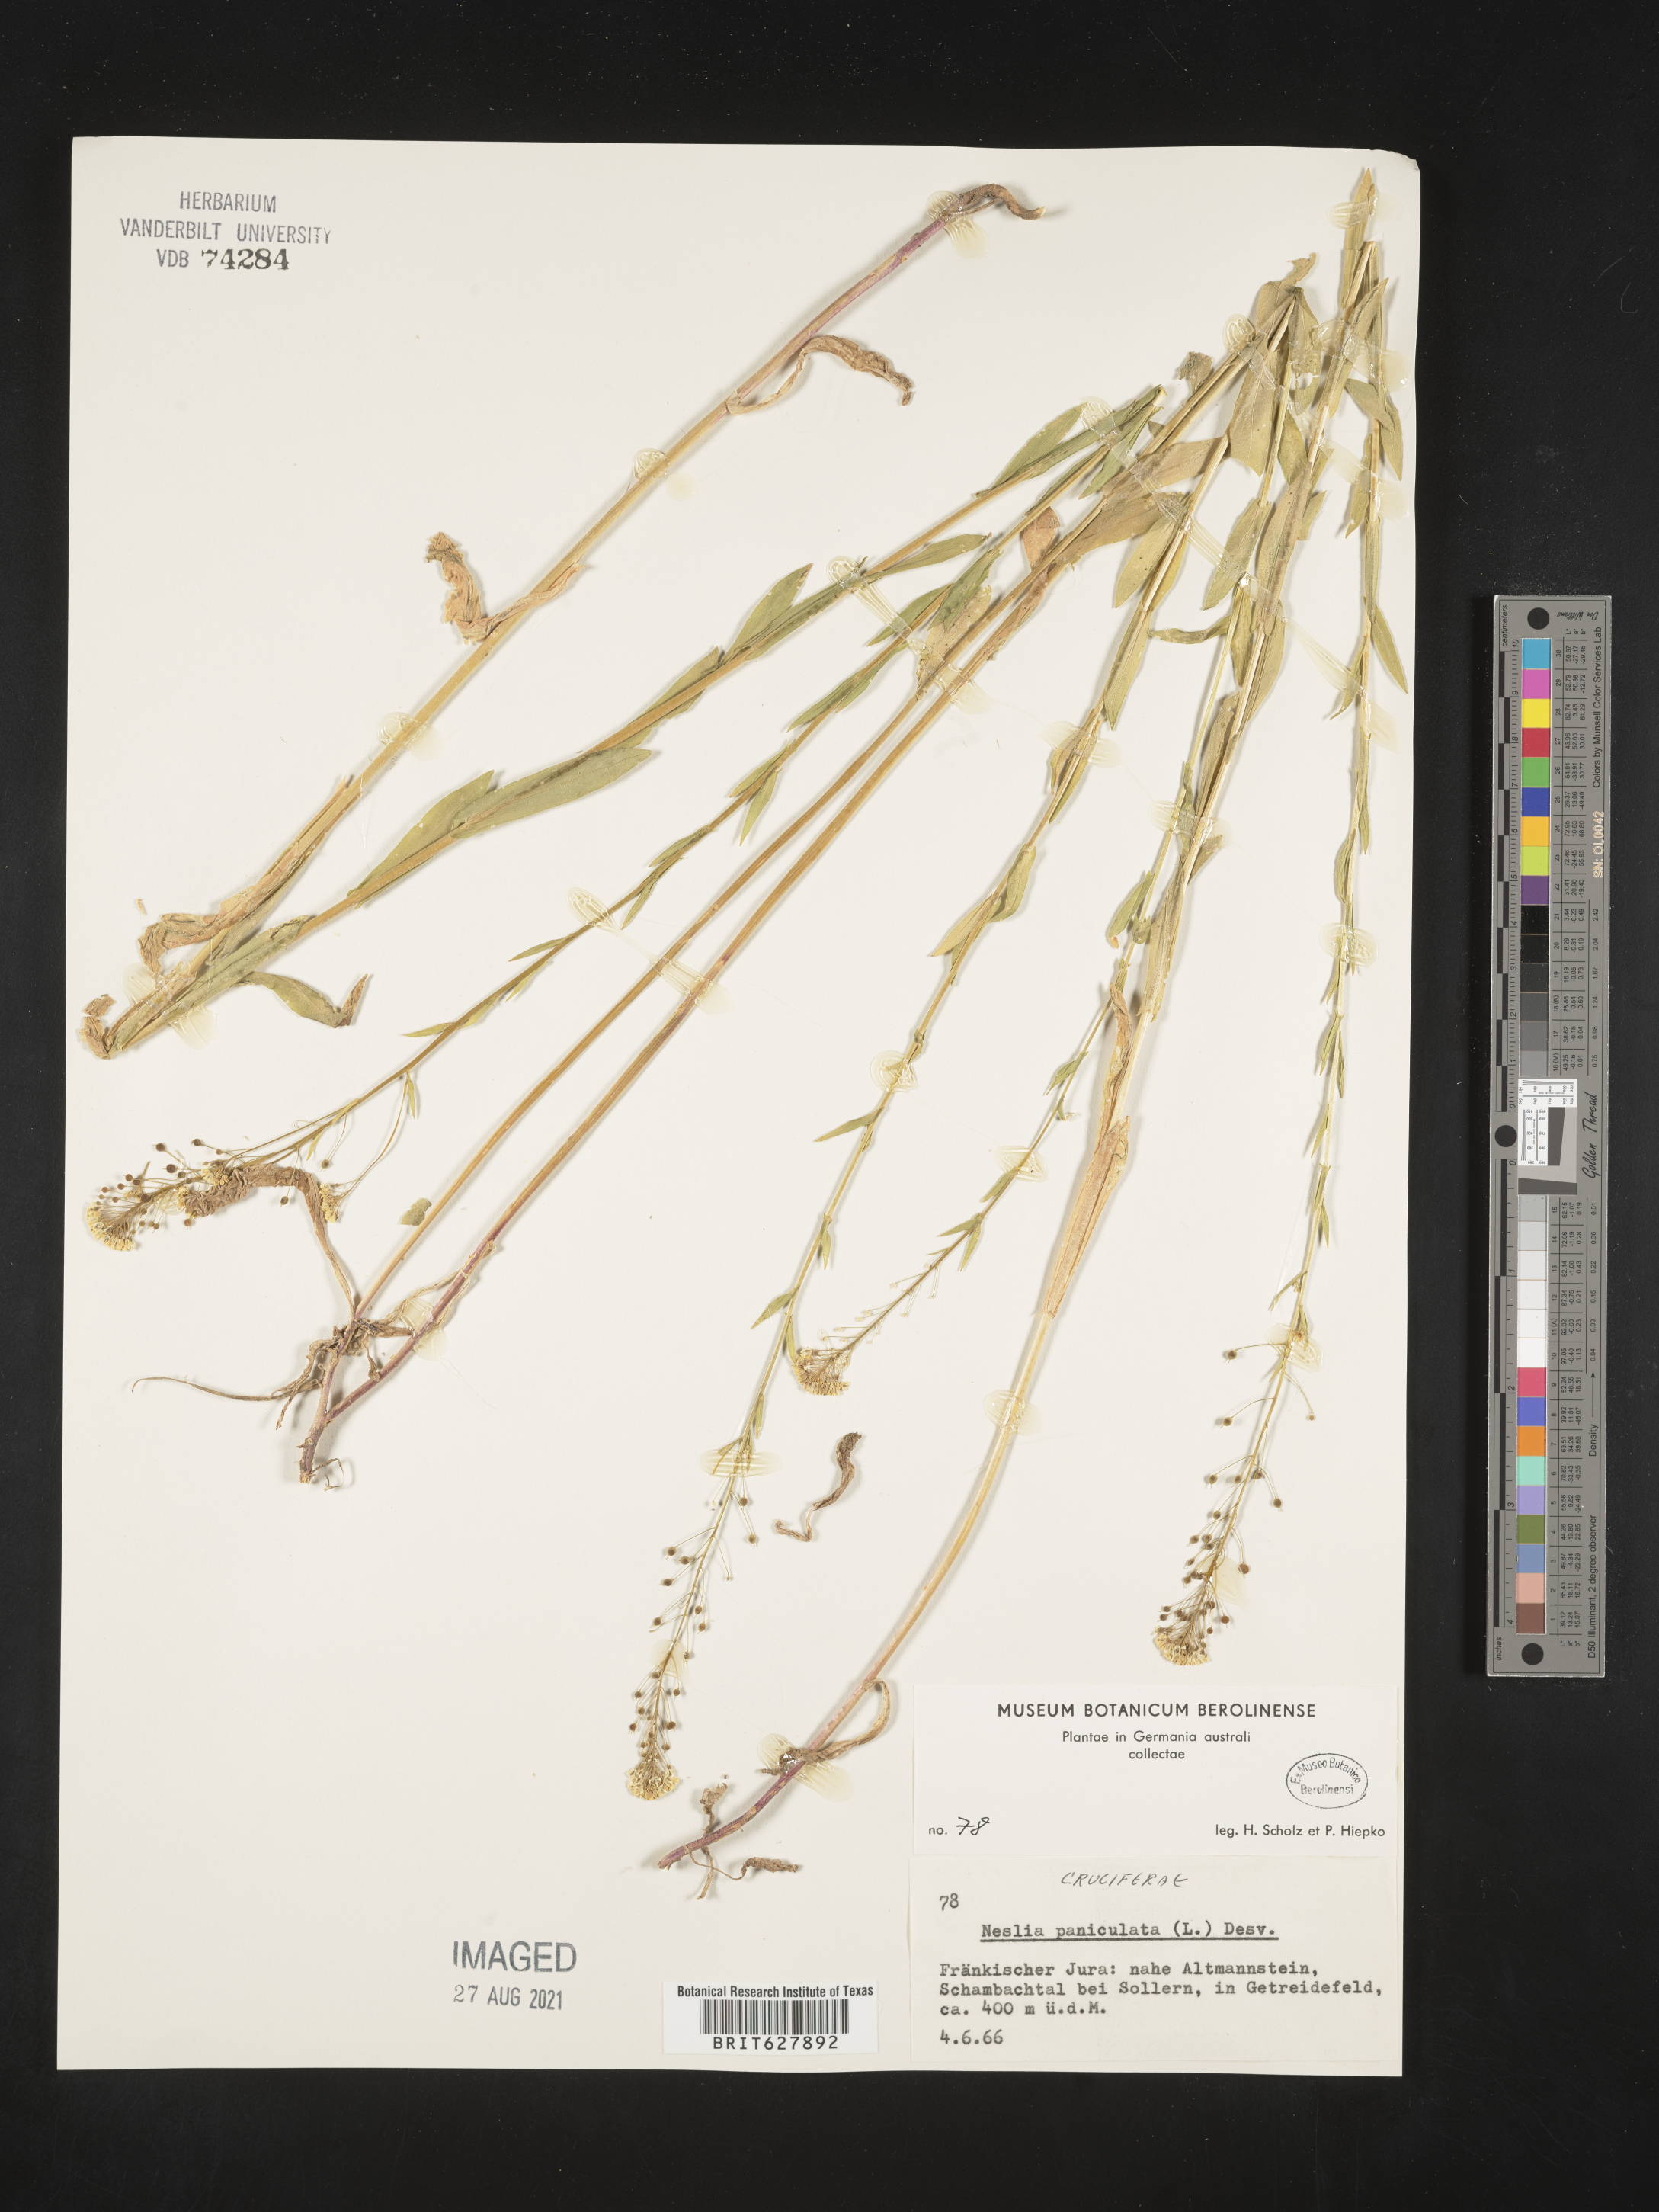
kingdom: Plantae
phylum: Tracheophyta
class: Magnoliopsida
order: Brassicales
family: Brassicaceae
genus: Neslia
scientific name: Neslia paniculata
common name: Ball mustard
